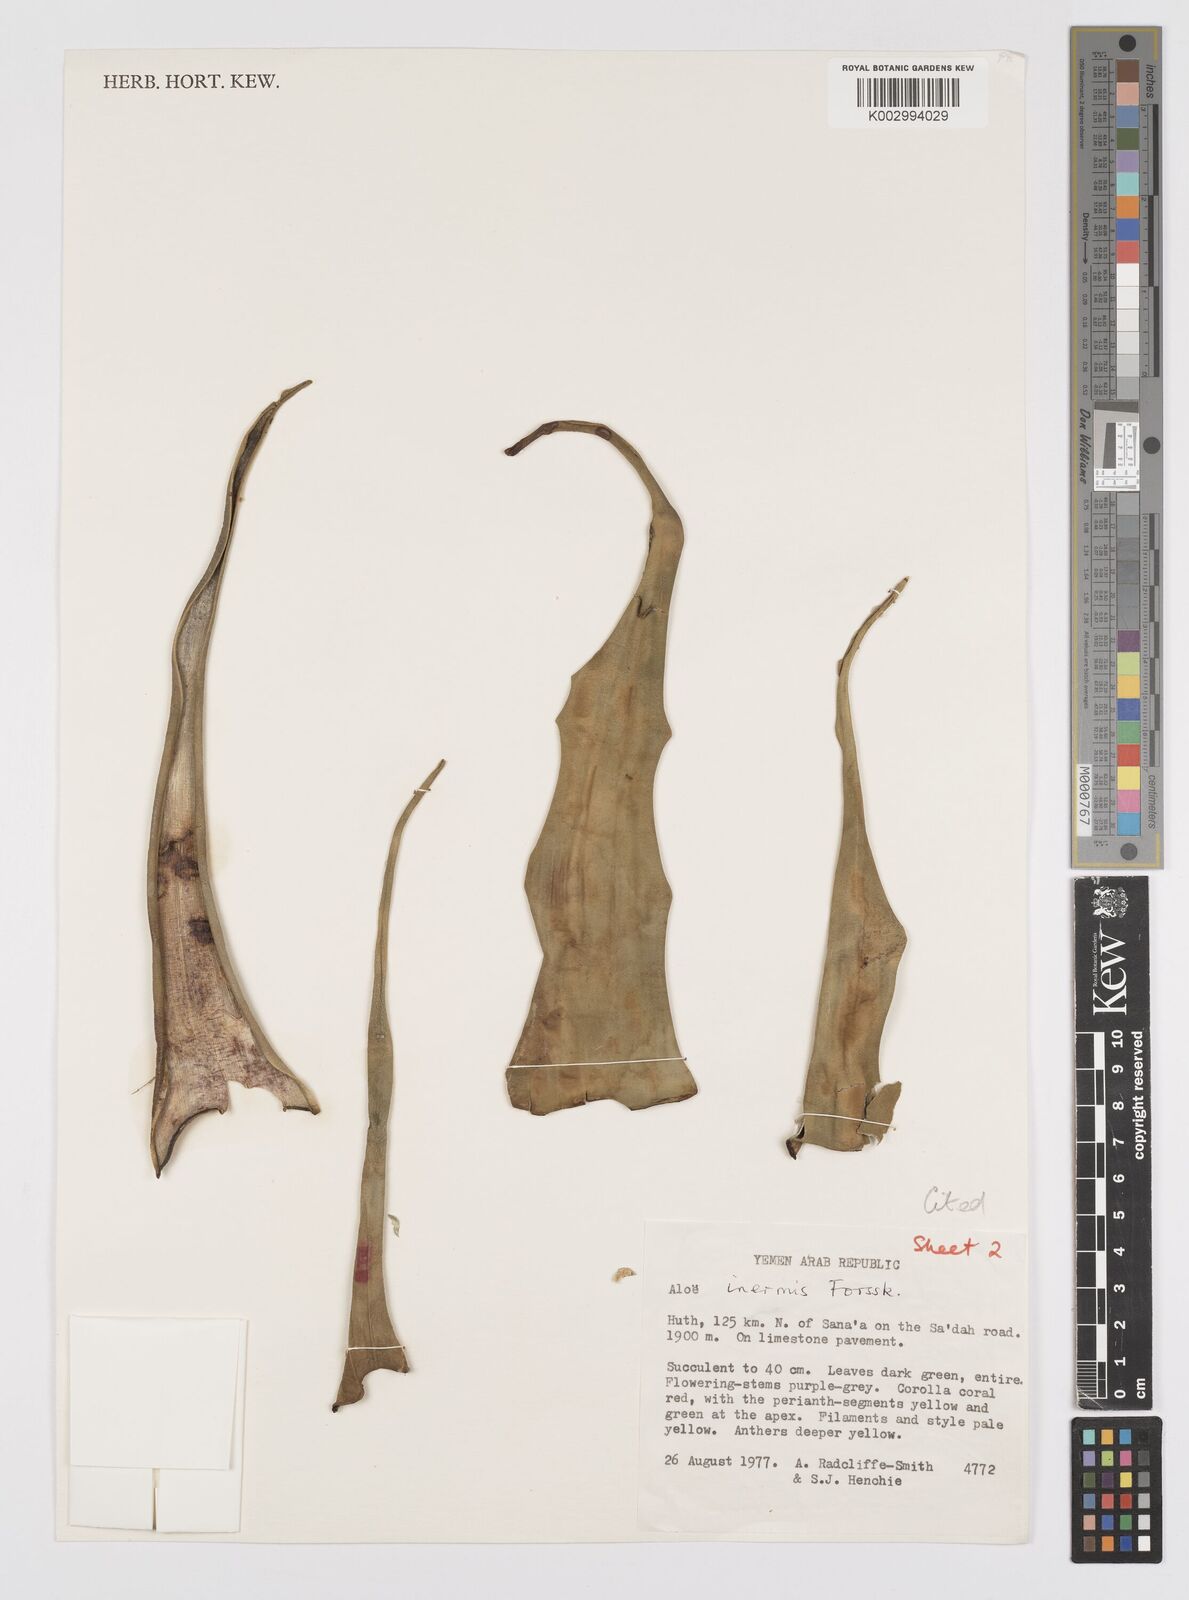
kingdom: Plantae
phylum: Tracheophyta
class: Liliopsida
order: Asparagales
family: Asphodelaceae
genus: Aloe
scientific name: Aloe fleurentiniorum
